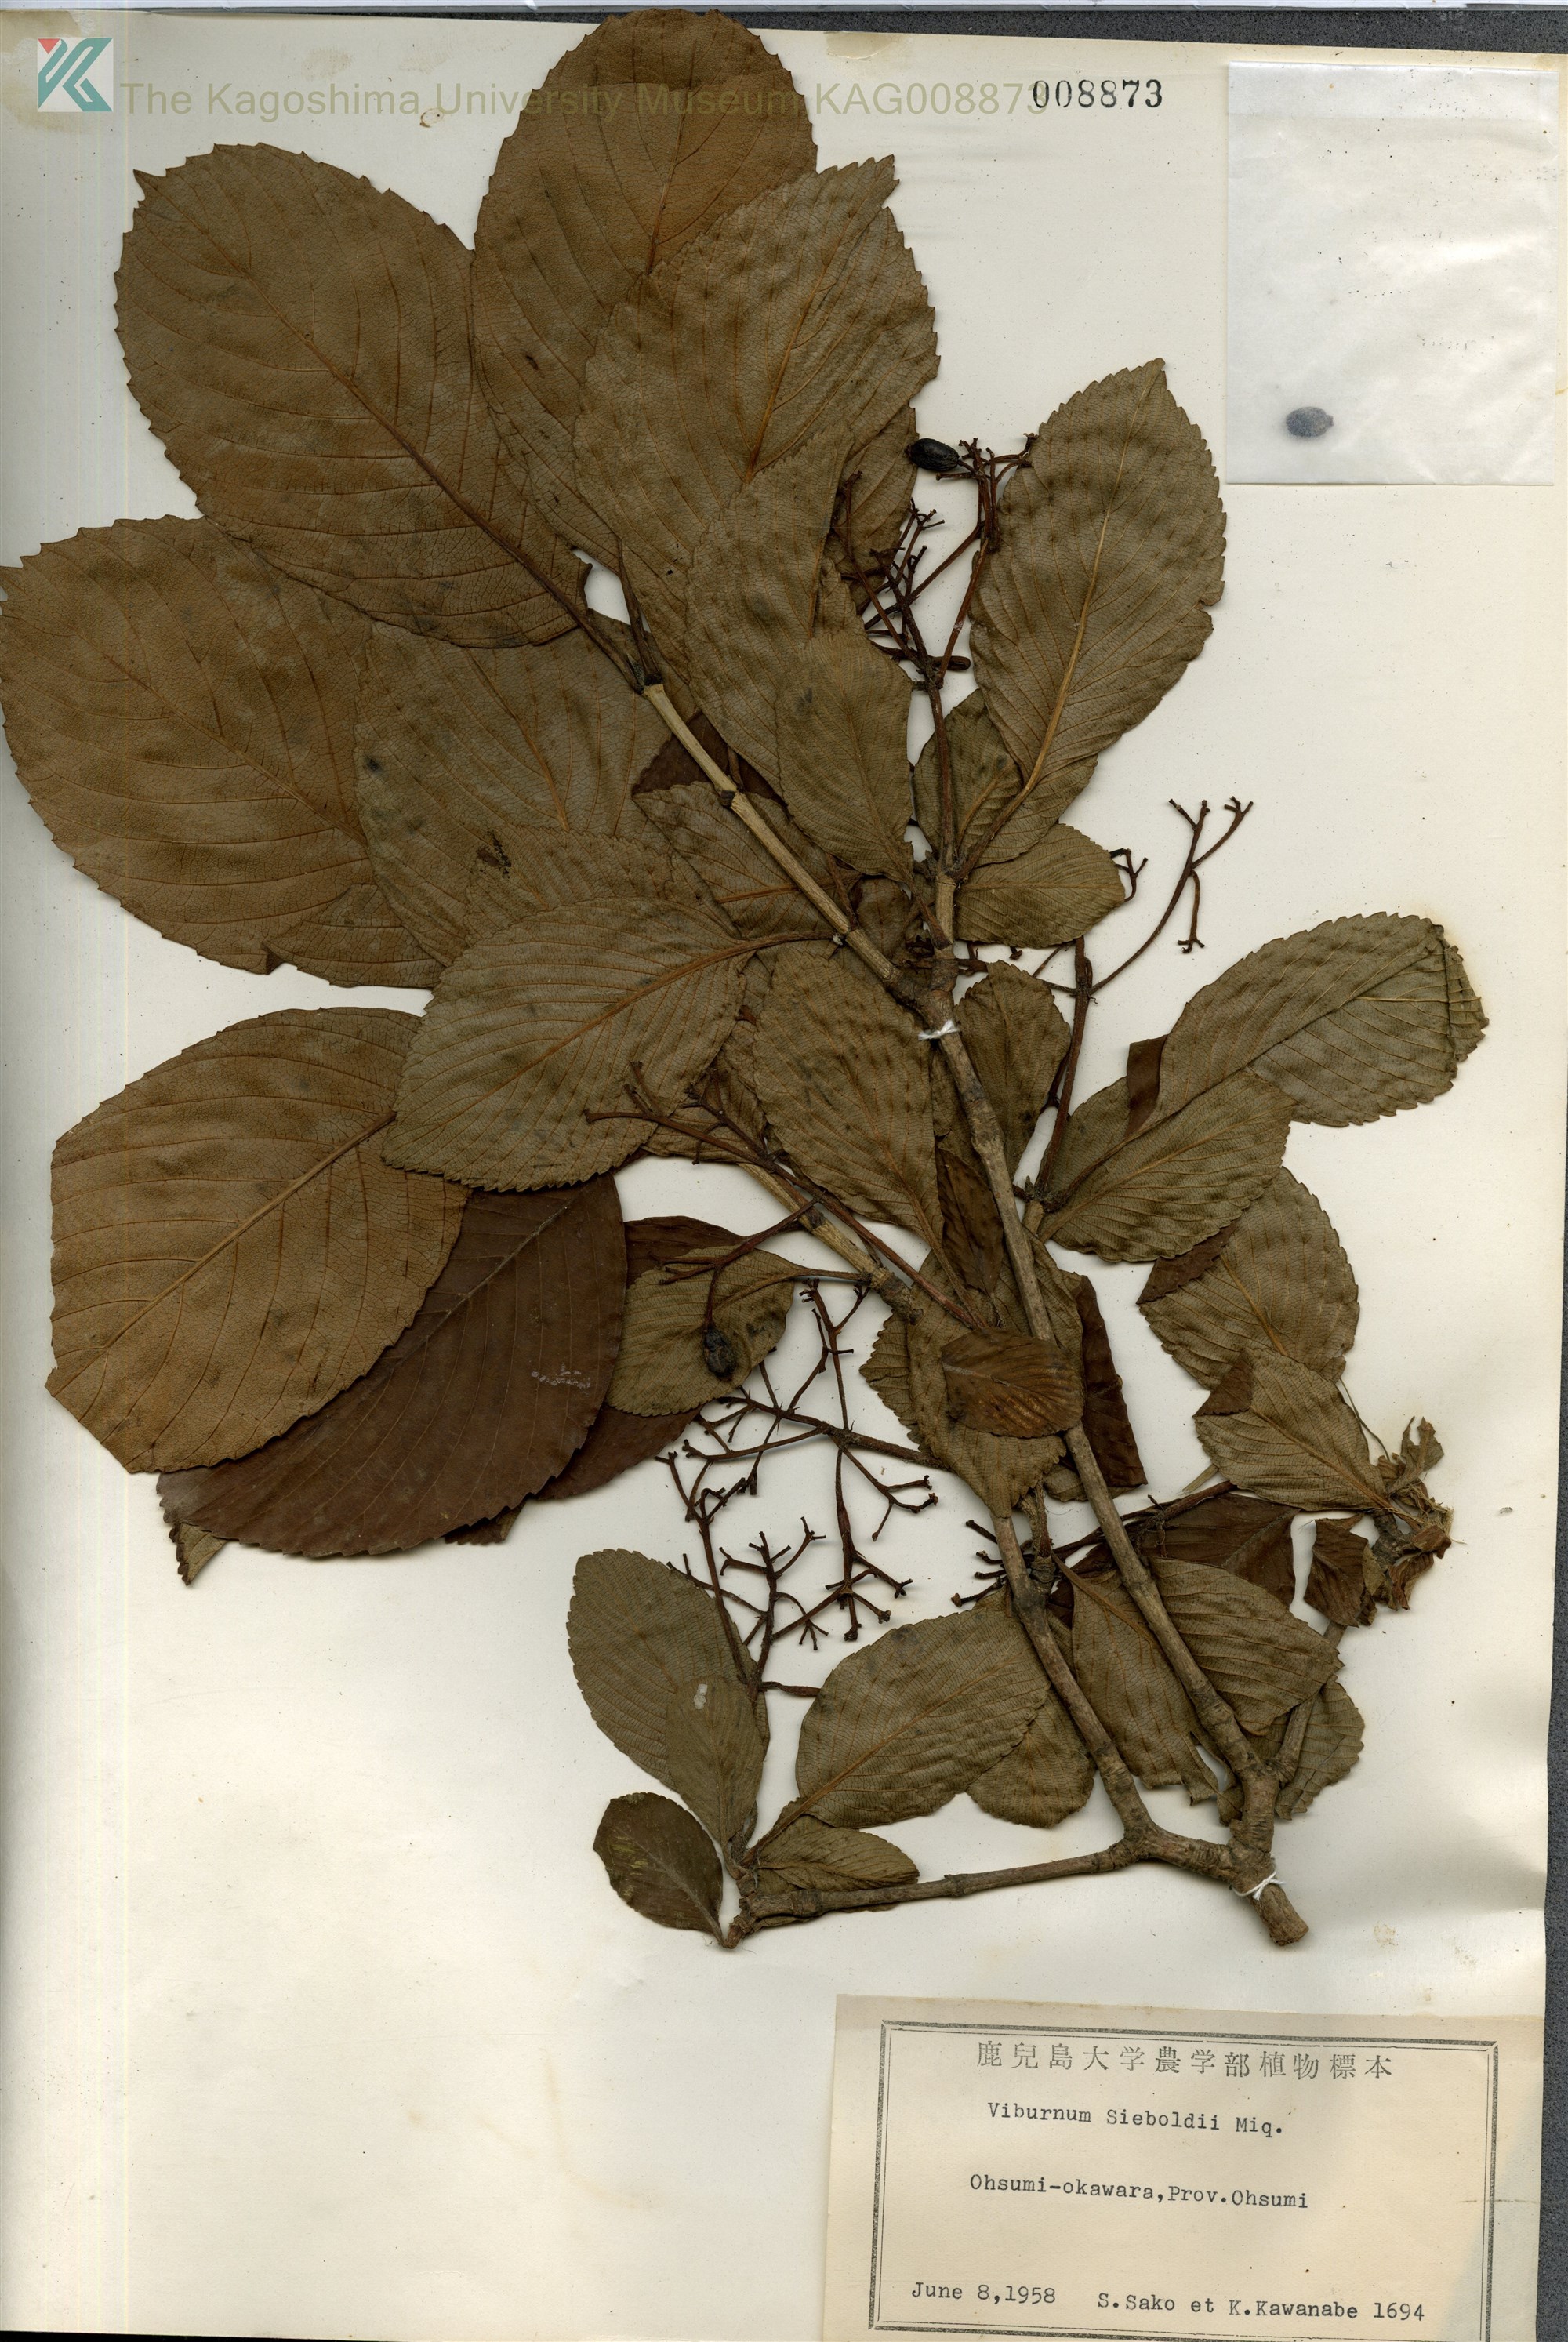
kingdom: Plantae
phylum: Tracheophyta
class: Magnoliopsida
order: Dipsacales
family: Viburnaceae
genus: Viburnum
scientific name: Viburnum sieboldii
